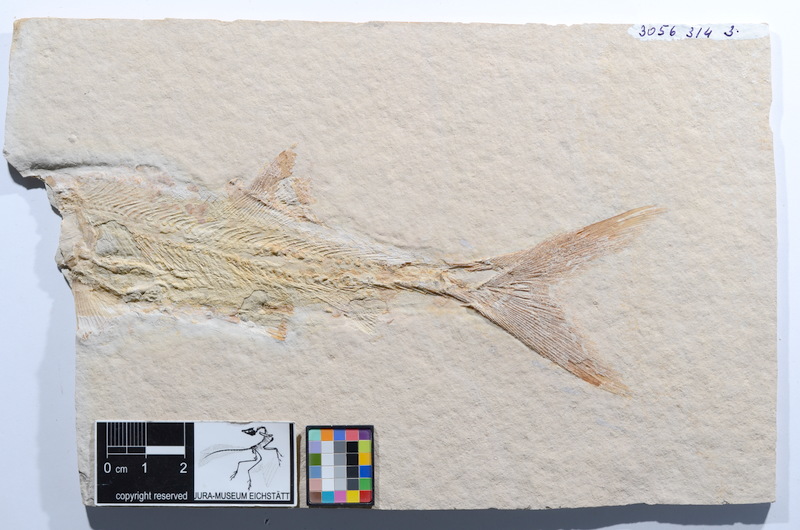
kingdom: Animalia
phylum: Chordata
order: Amiiformes
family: Caturidae
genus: Caturus
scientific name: Caturus
